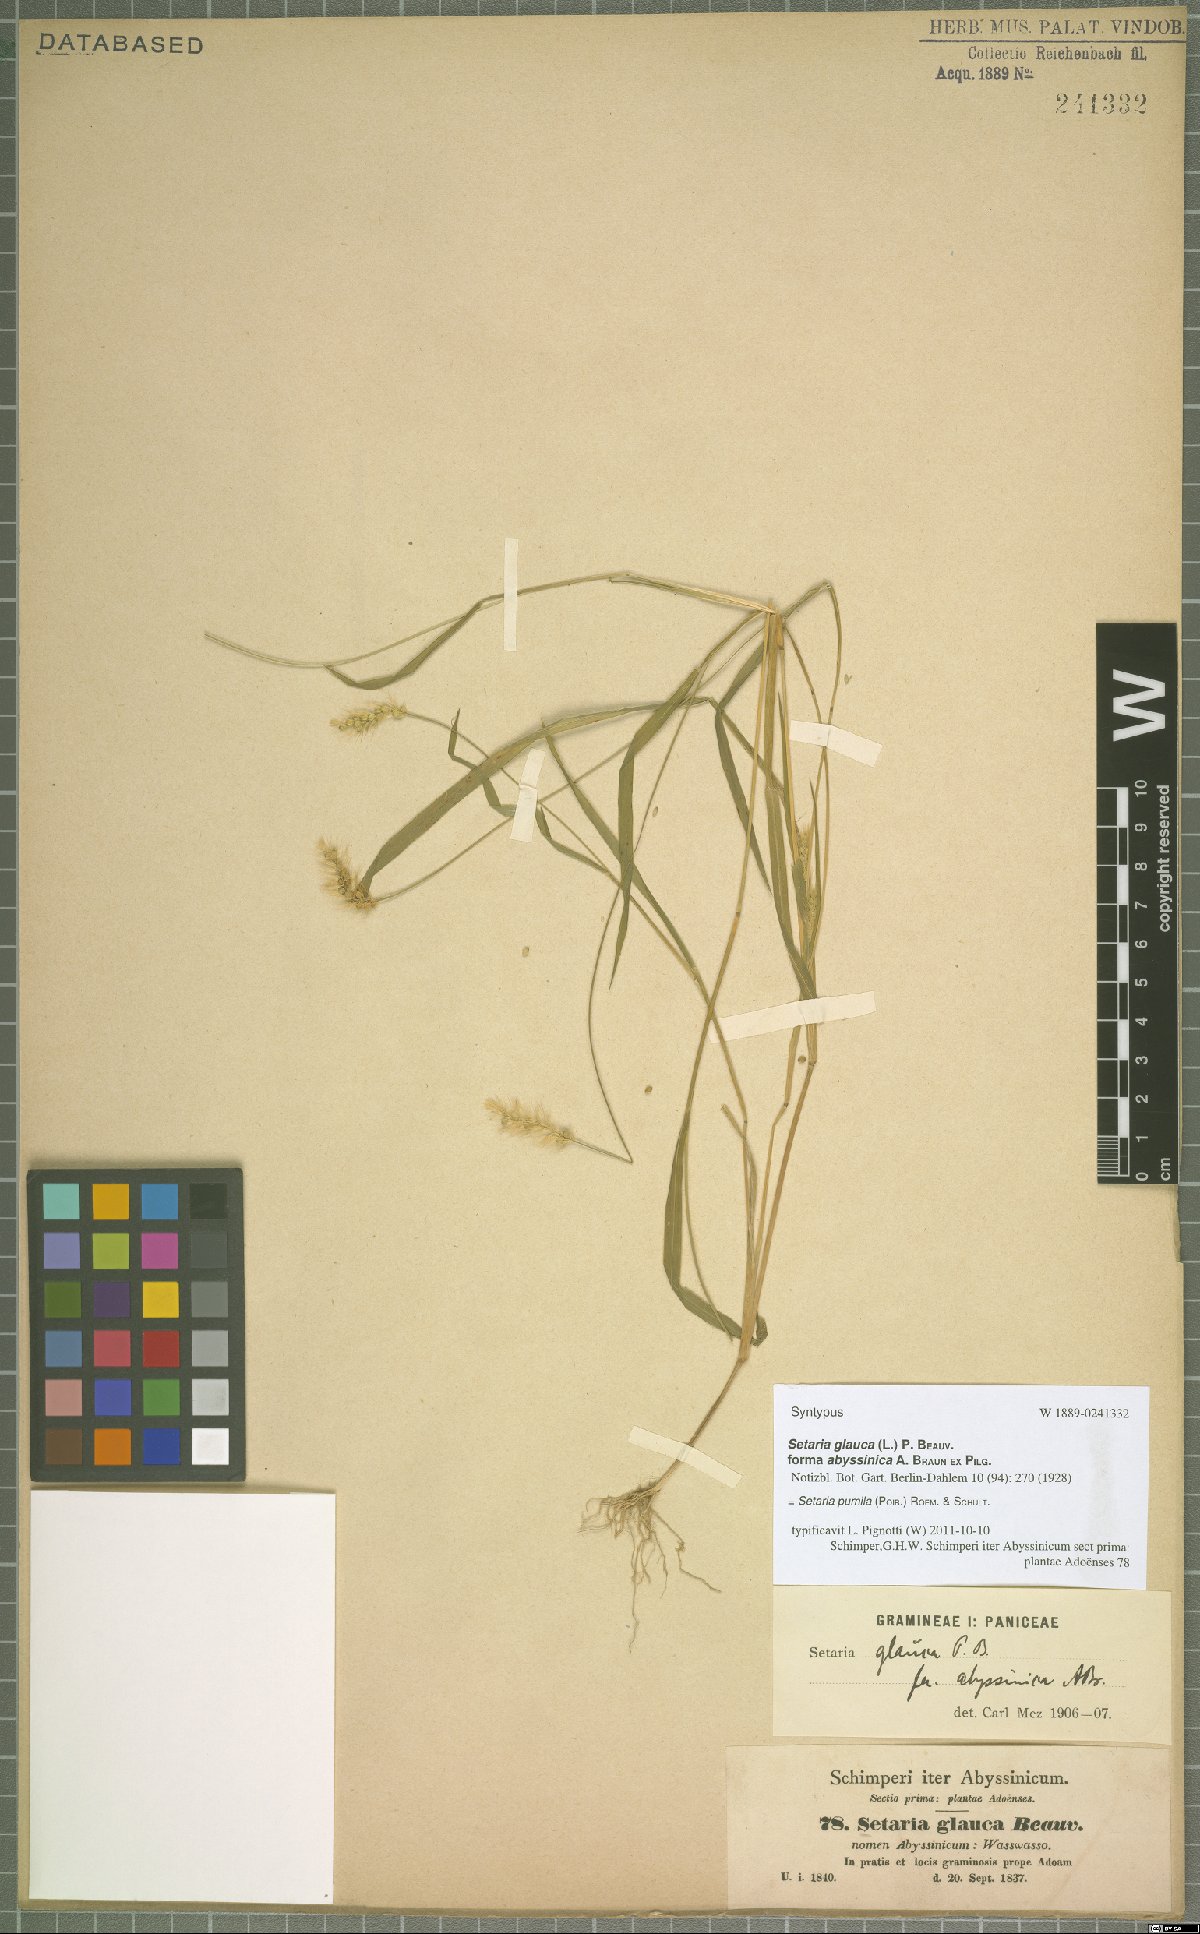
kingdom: Plantae
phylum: Tracheophyta
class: Liliopsida
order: Poales
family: Poaceae
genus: Setaria
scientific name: Setaria pumila
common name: Yellow bristle-grass
